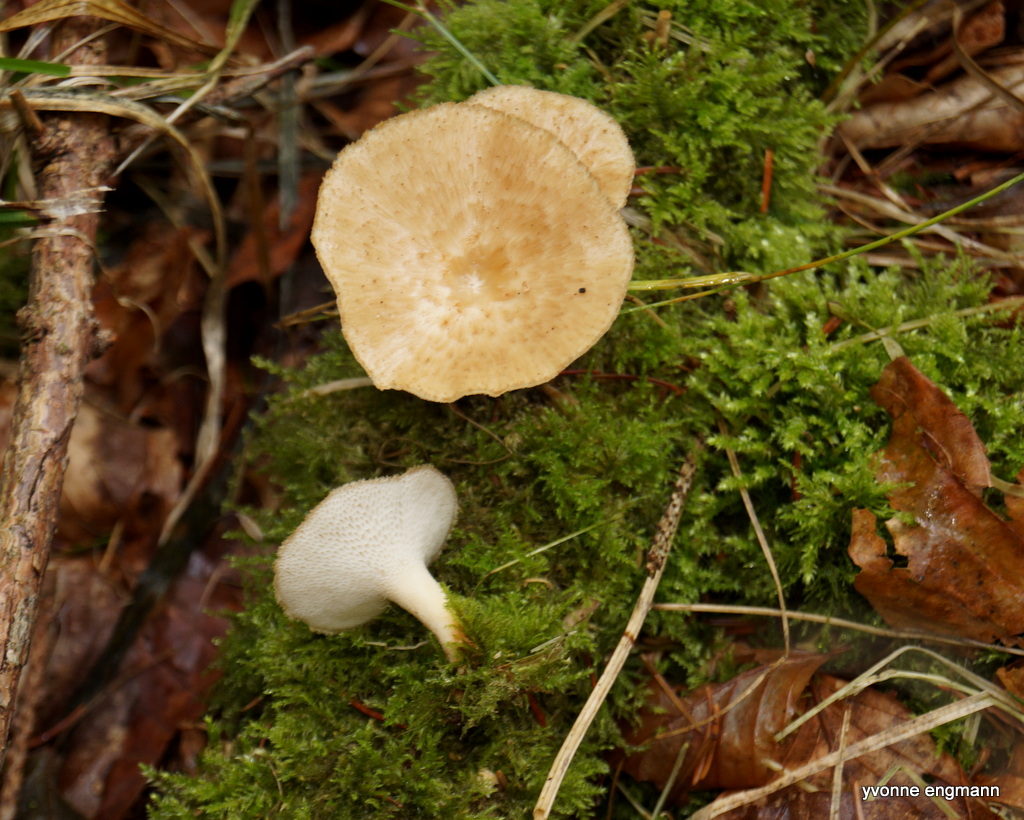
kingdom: Fungi
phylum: Basidiomycota
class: Agaricomycetes
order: Polyporales
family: Polyporaceae
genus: Polyporus
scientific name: Polyporus tuberaster
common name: knoldet stilkporesvamp
